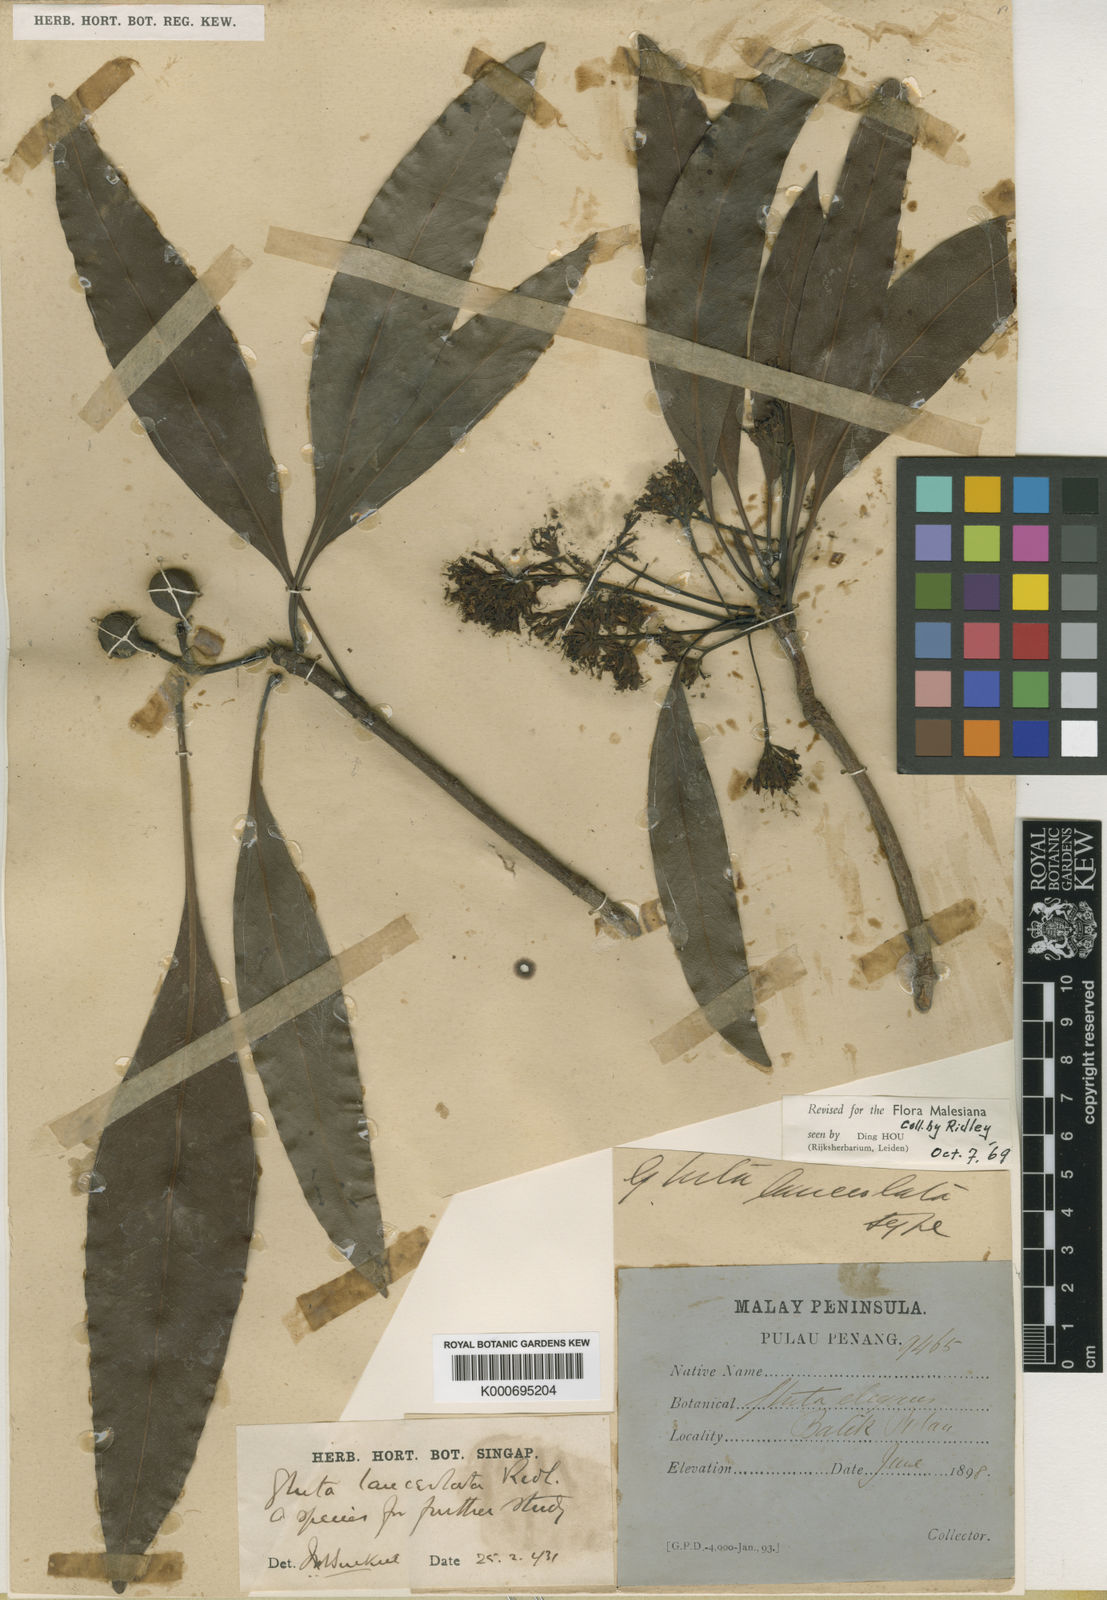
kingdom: Plantae
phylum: Tracheophyta
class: Magnoliopsida
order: Sapindales
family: Anacardiaceae
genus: Gluta
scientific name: Gluta lanceolata
